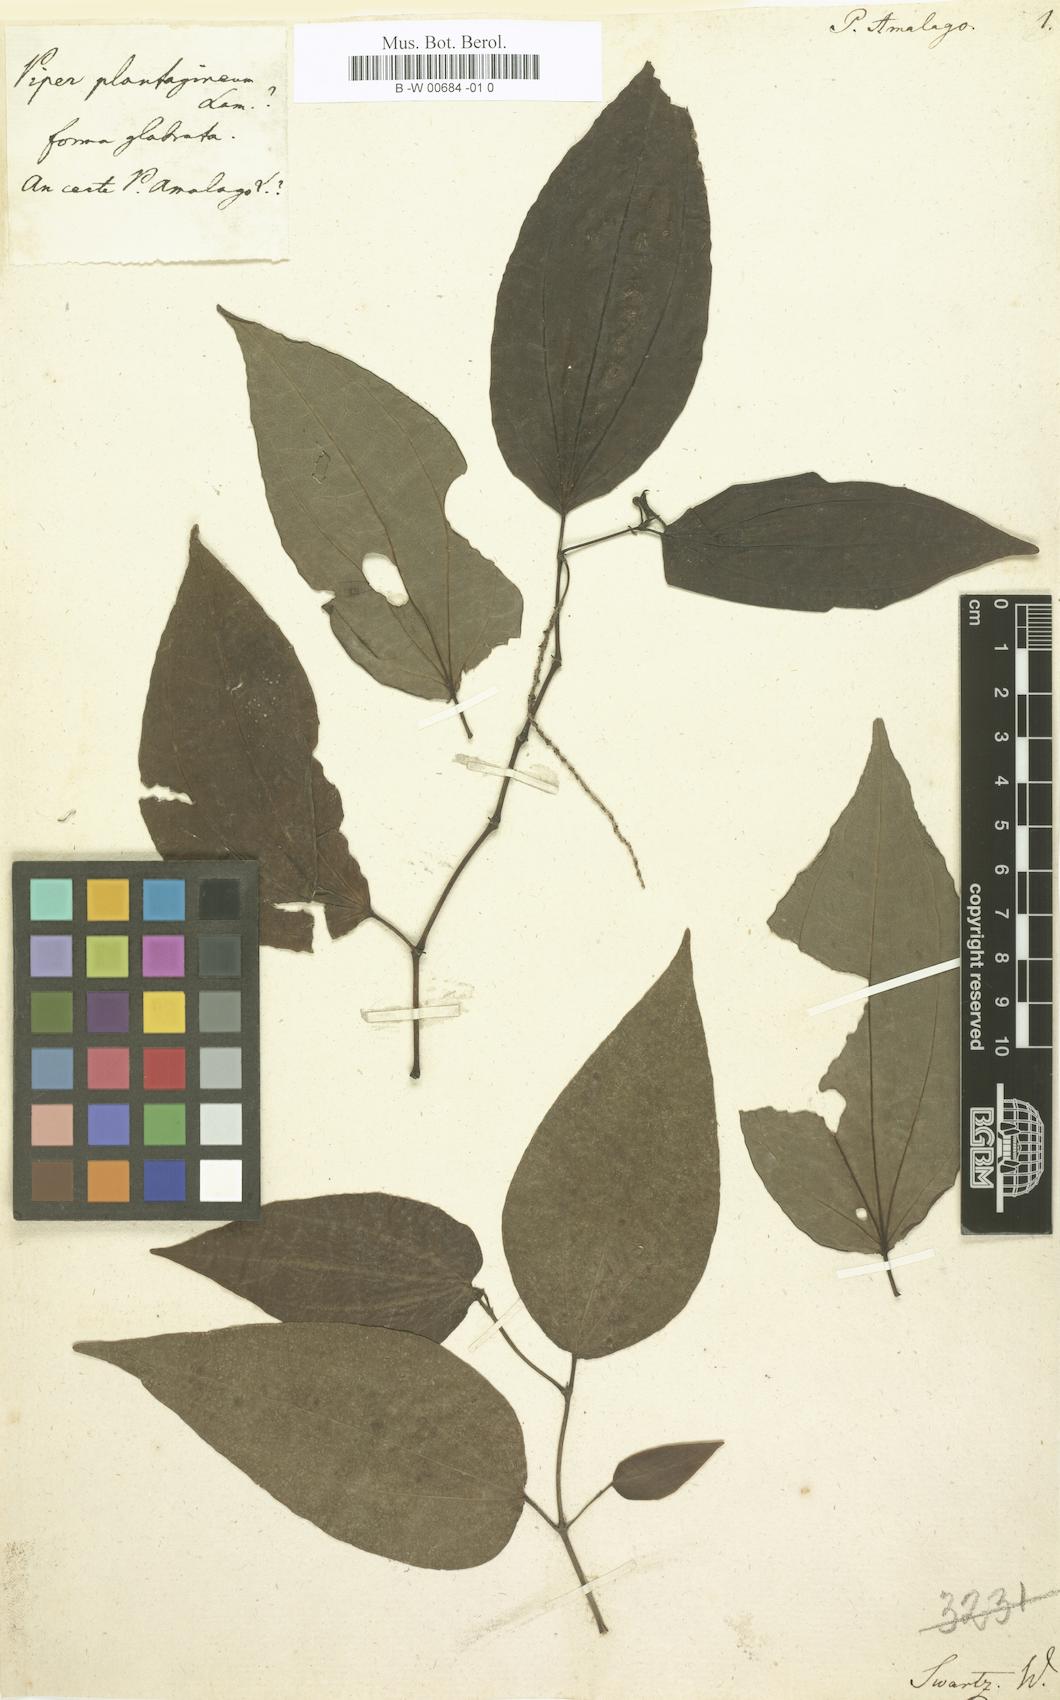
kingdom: Plantae
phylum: Tracheophyta
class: Magnoliopsida
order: Piperales
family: Piperaceae
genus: Piper
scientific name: Piper amalago
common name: Pepper-elder
